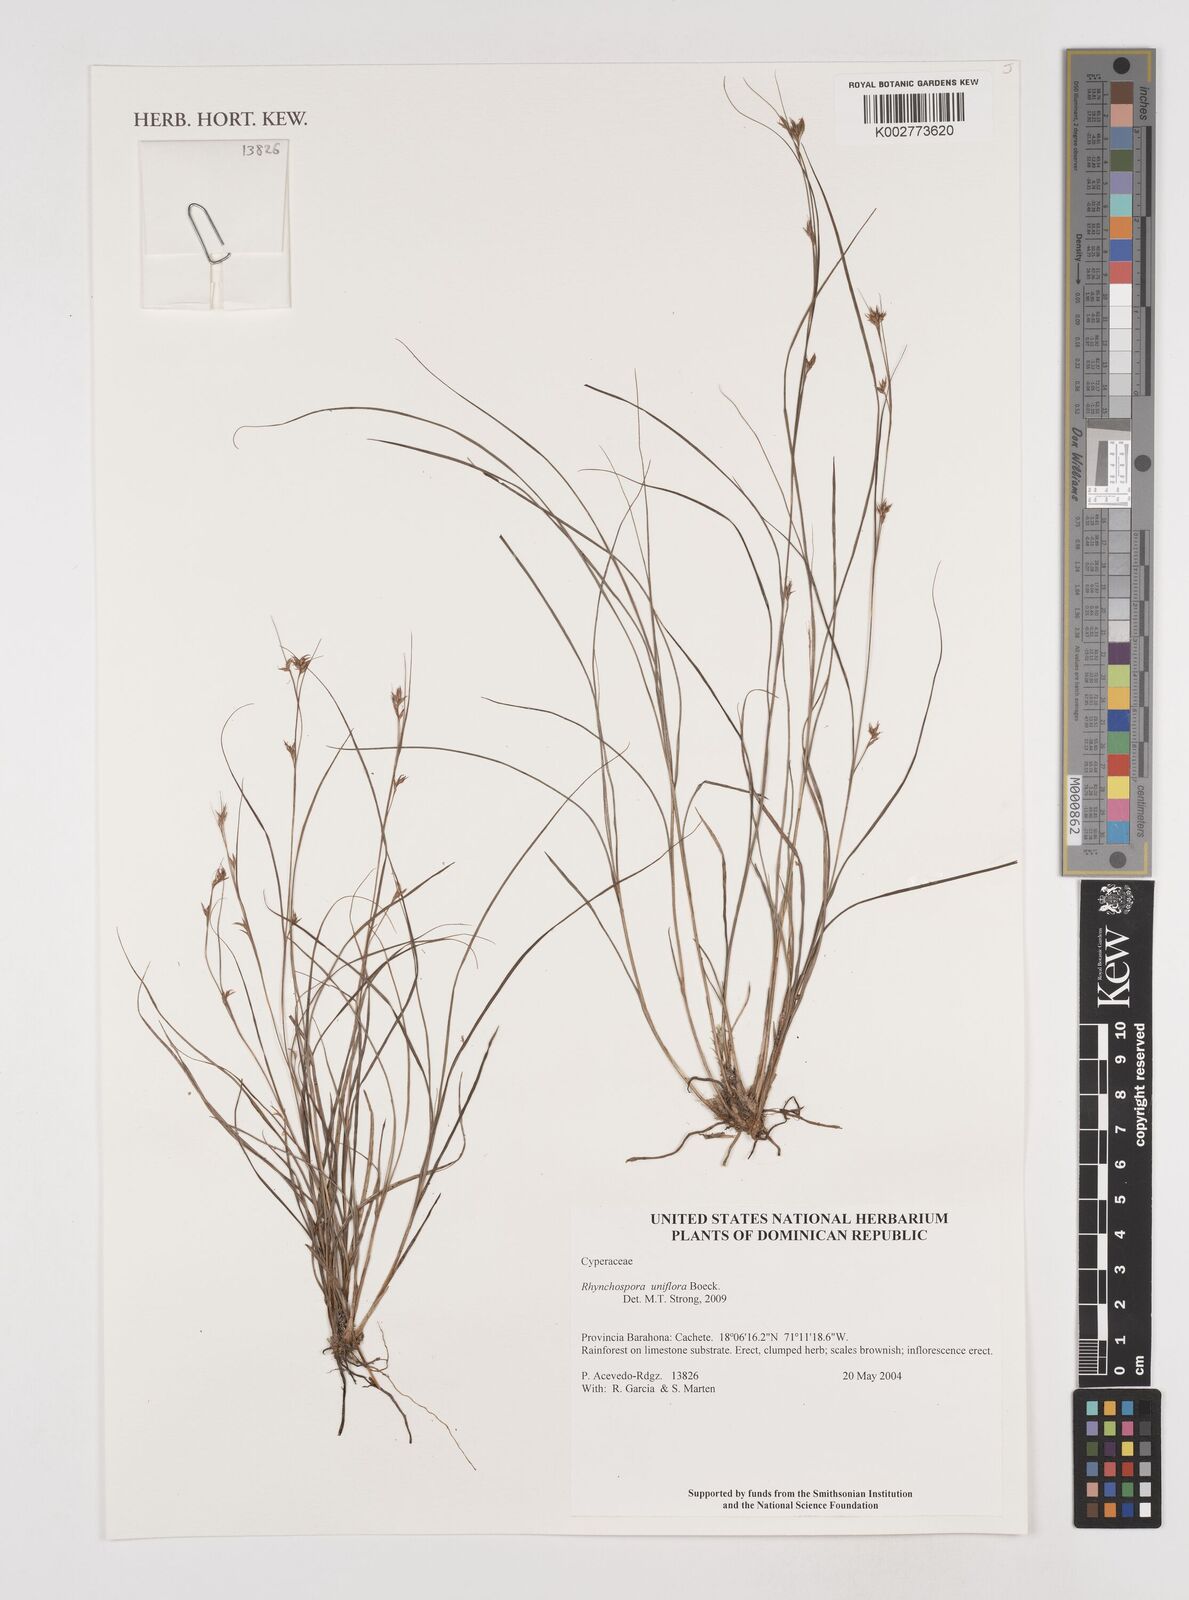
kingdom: Plantae
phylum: Tracheophyta
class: Liliopsida
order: Poales
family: Cyperaceae
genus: Rhynchospora
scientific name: Rhynchospora biflora
